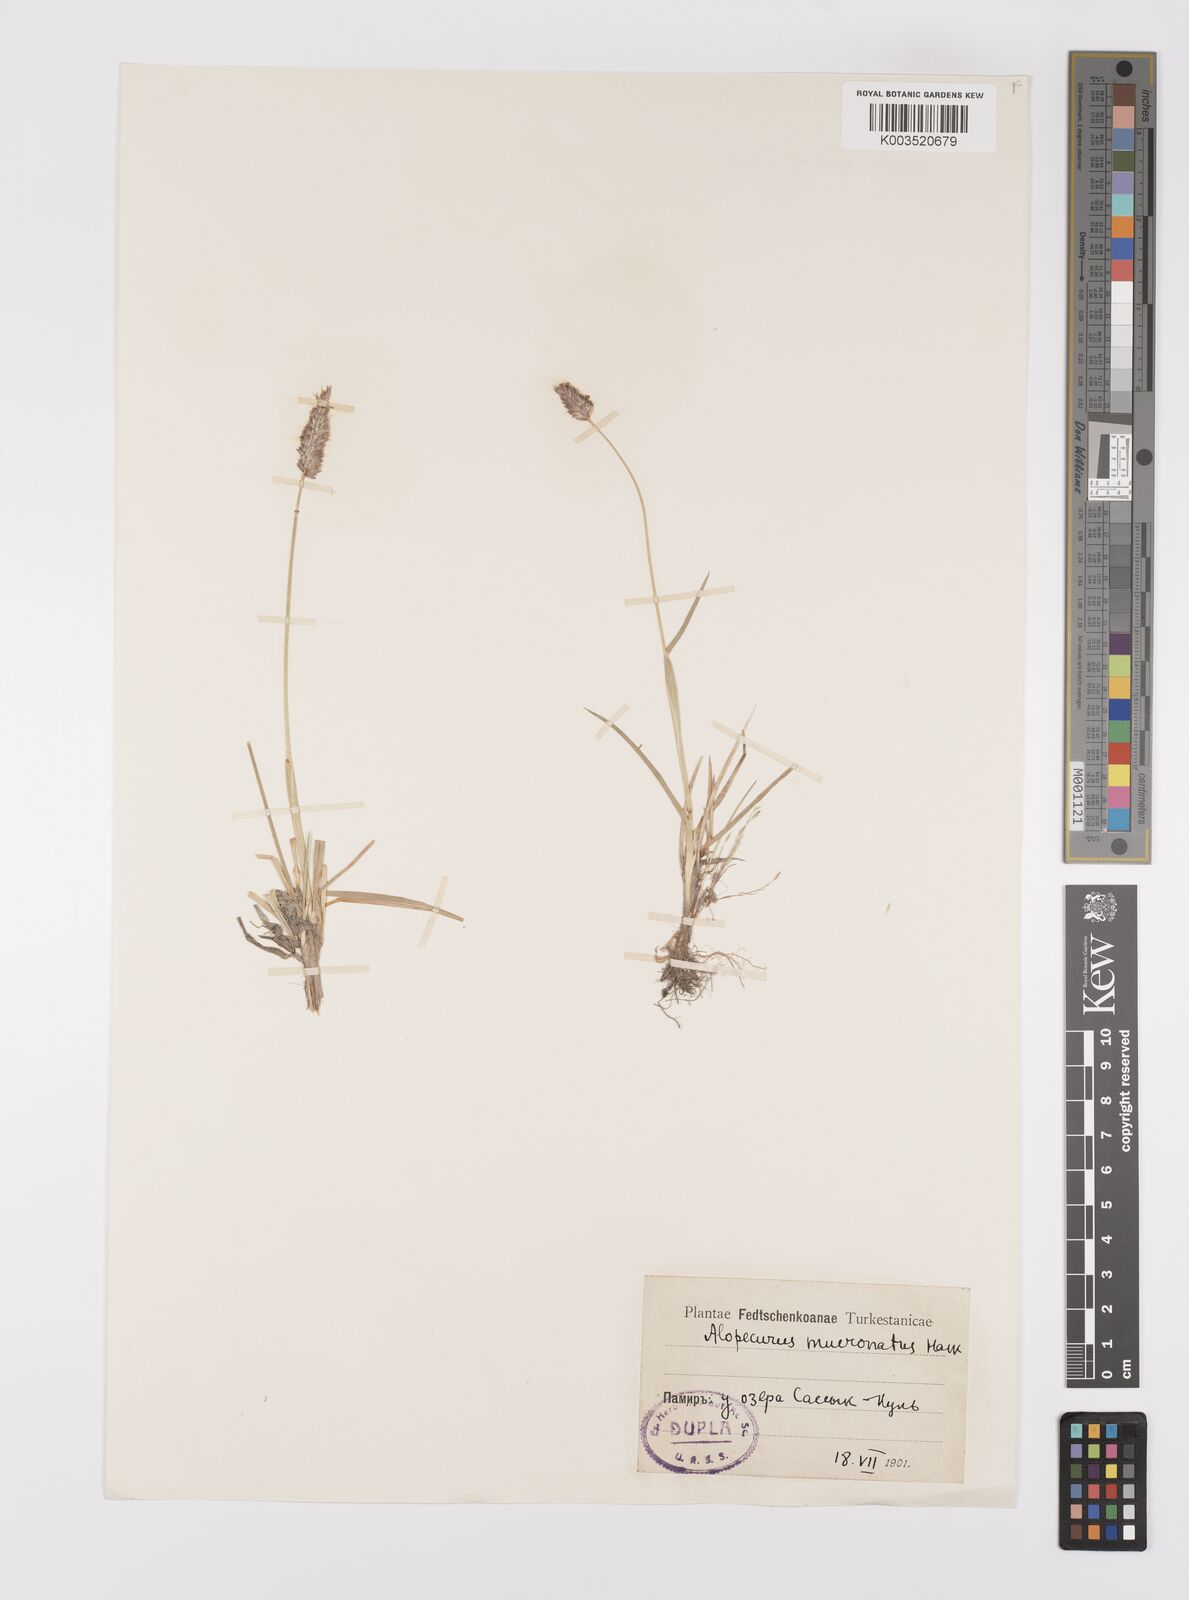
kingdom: Plantae
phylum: Tracheophyta
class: Liliopsida
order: Poales
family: Poaceae
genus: Alopecurus
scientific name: Alopecurus mucronatus
